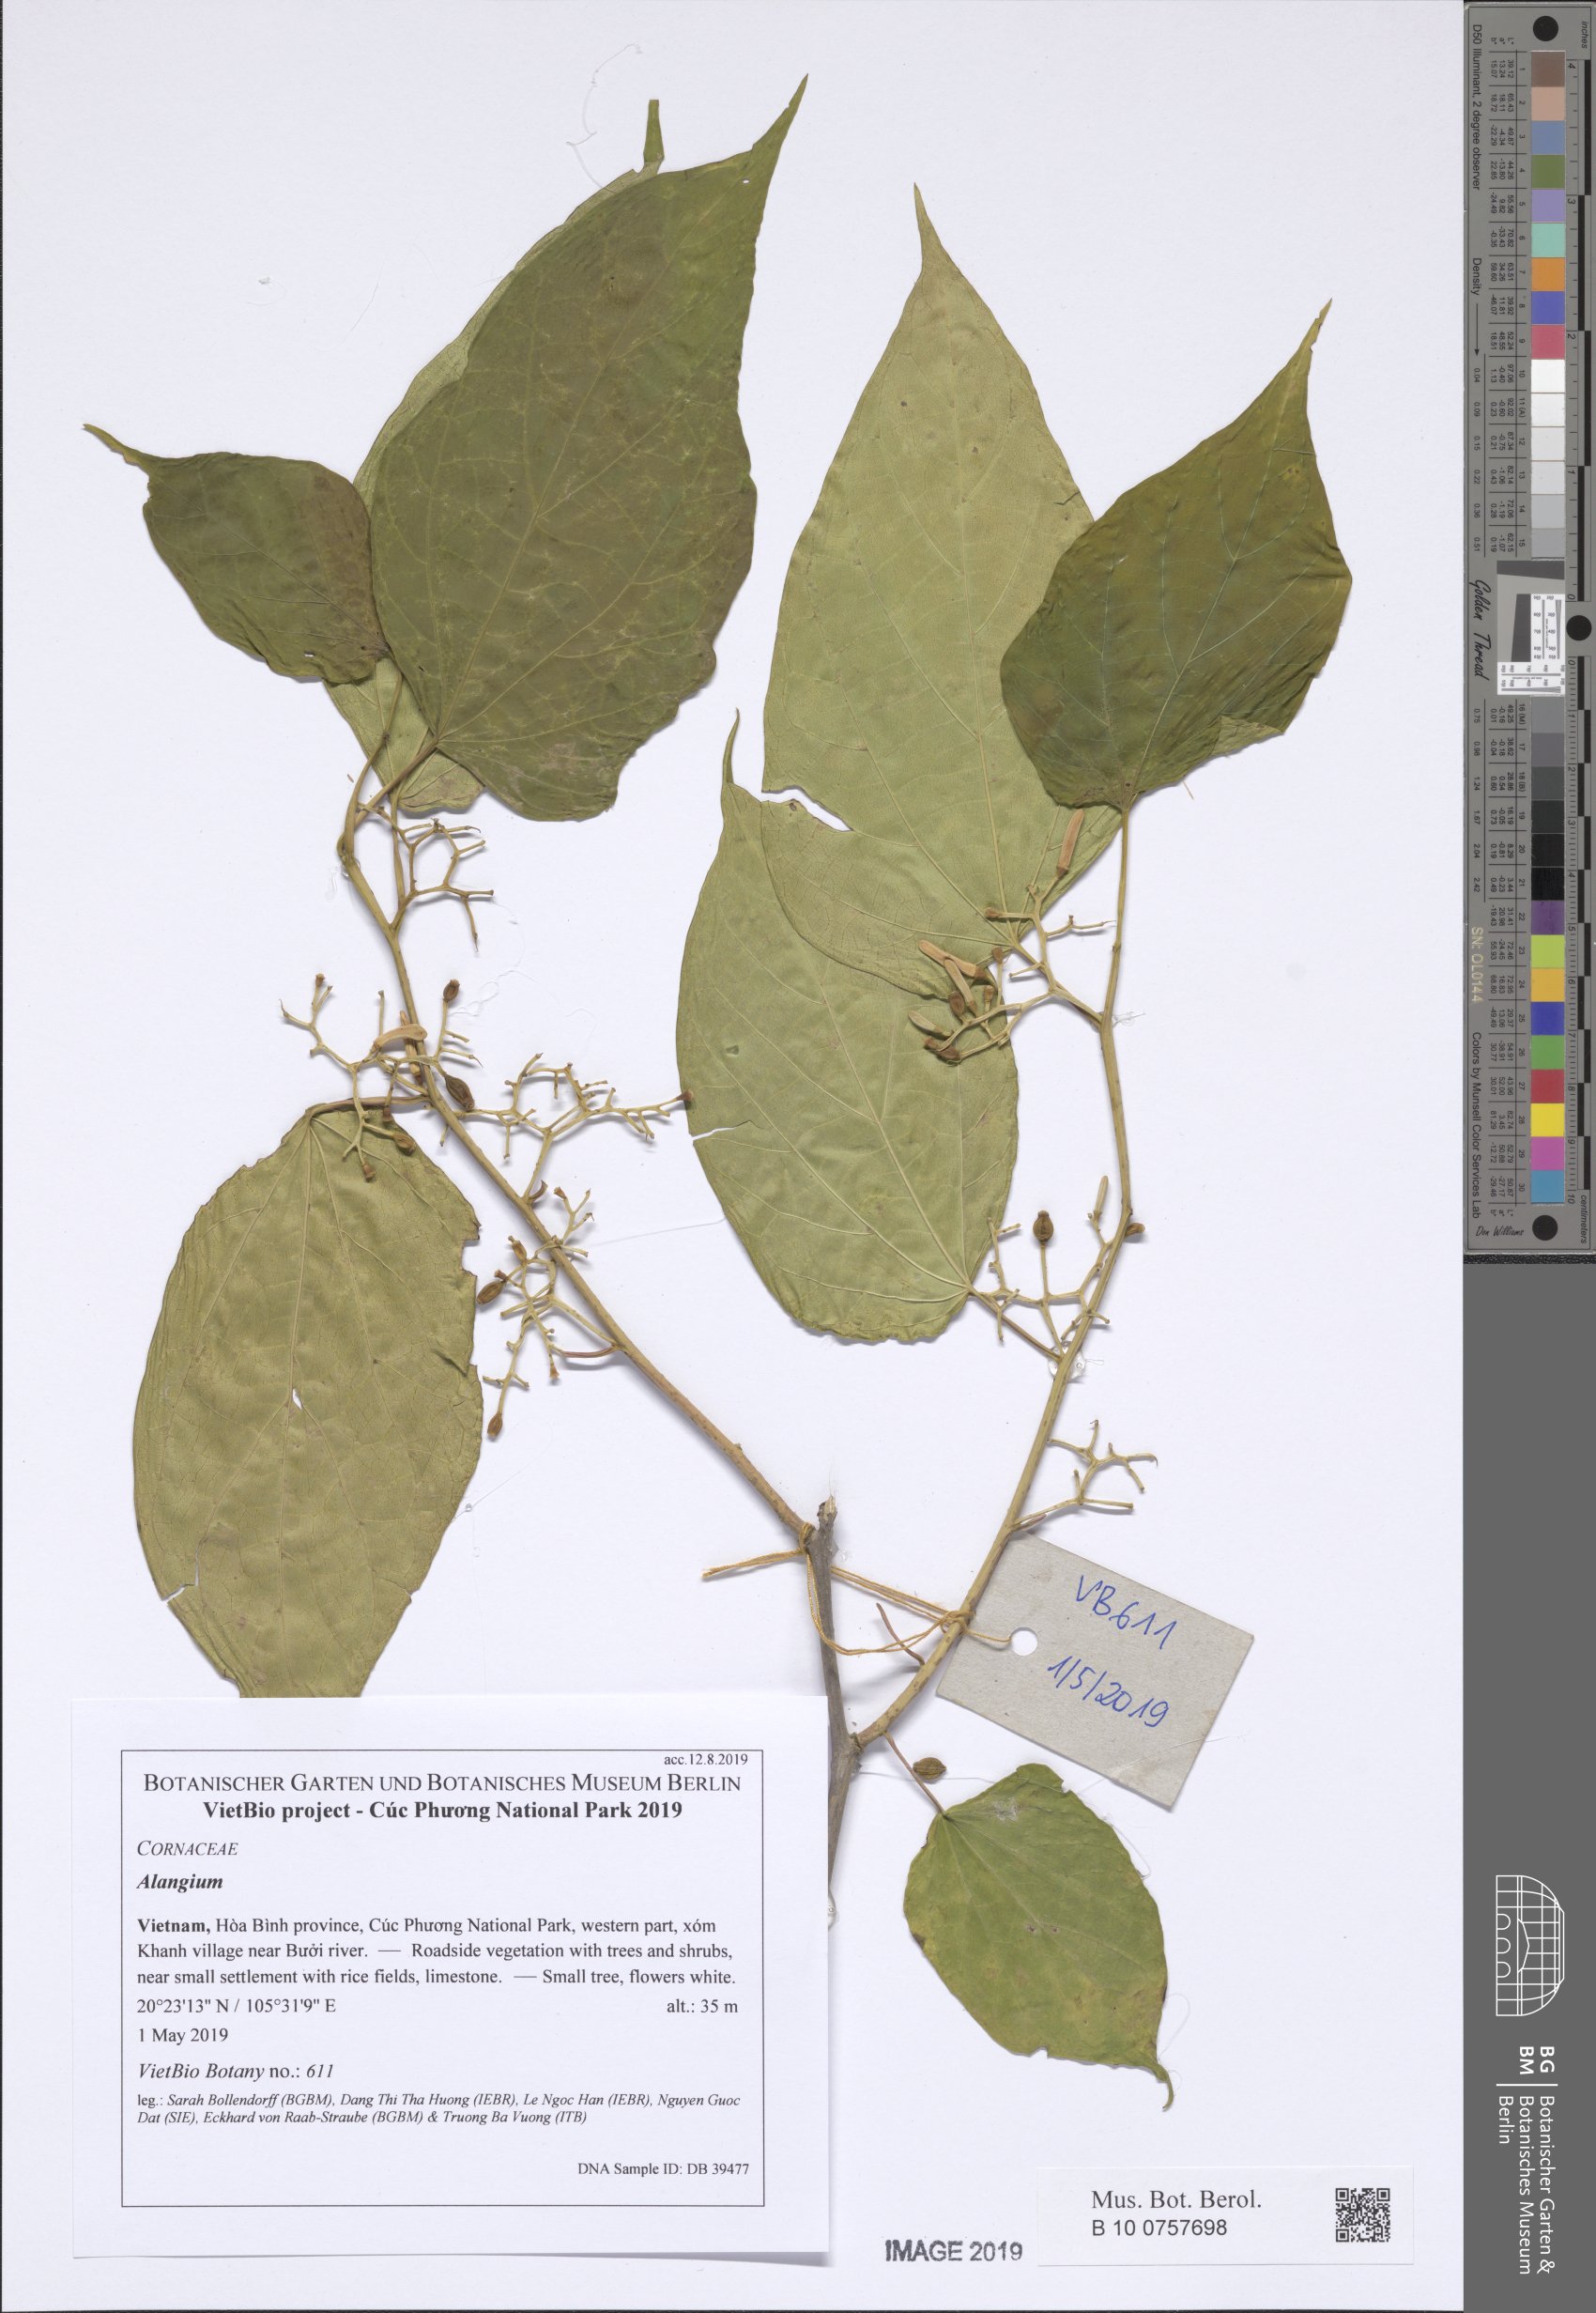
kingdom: Plantae
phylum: Tracheophyta
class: Magnoliopsida
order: Cornales
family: Cornaceae
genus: Alangium
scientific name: Alangium kurzii
